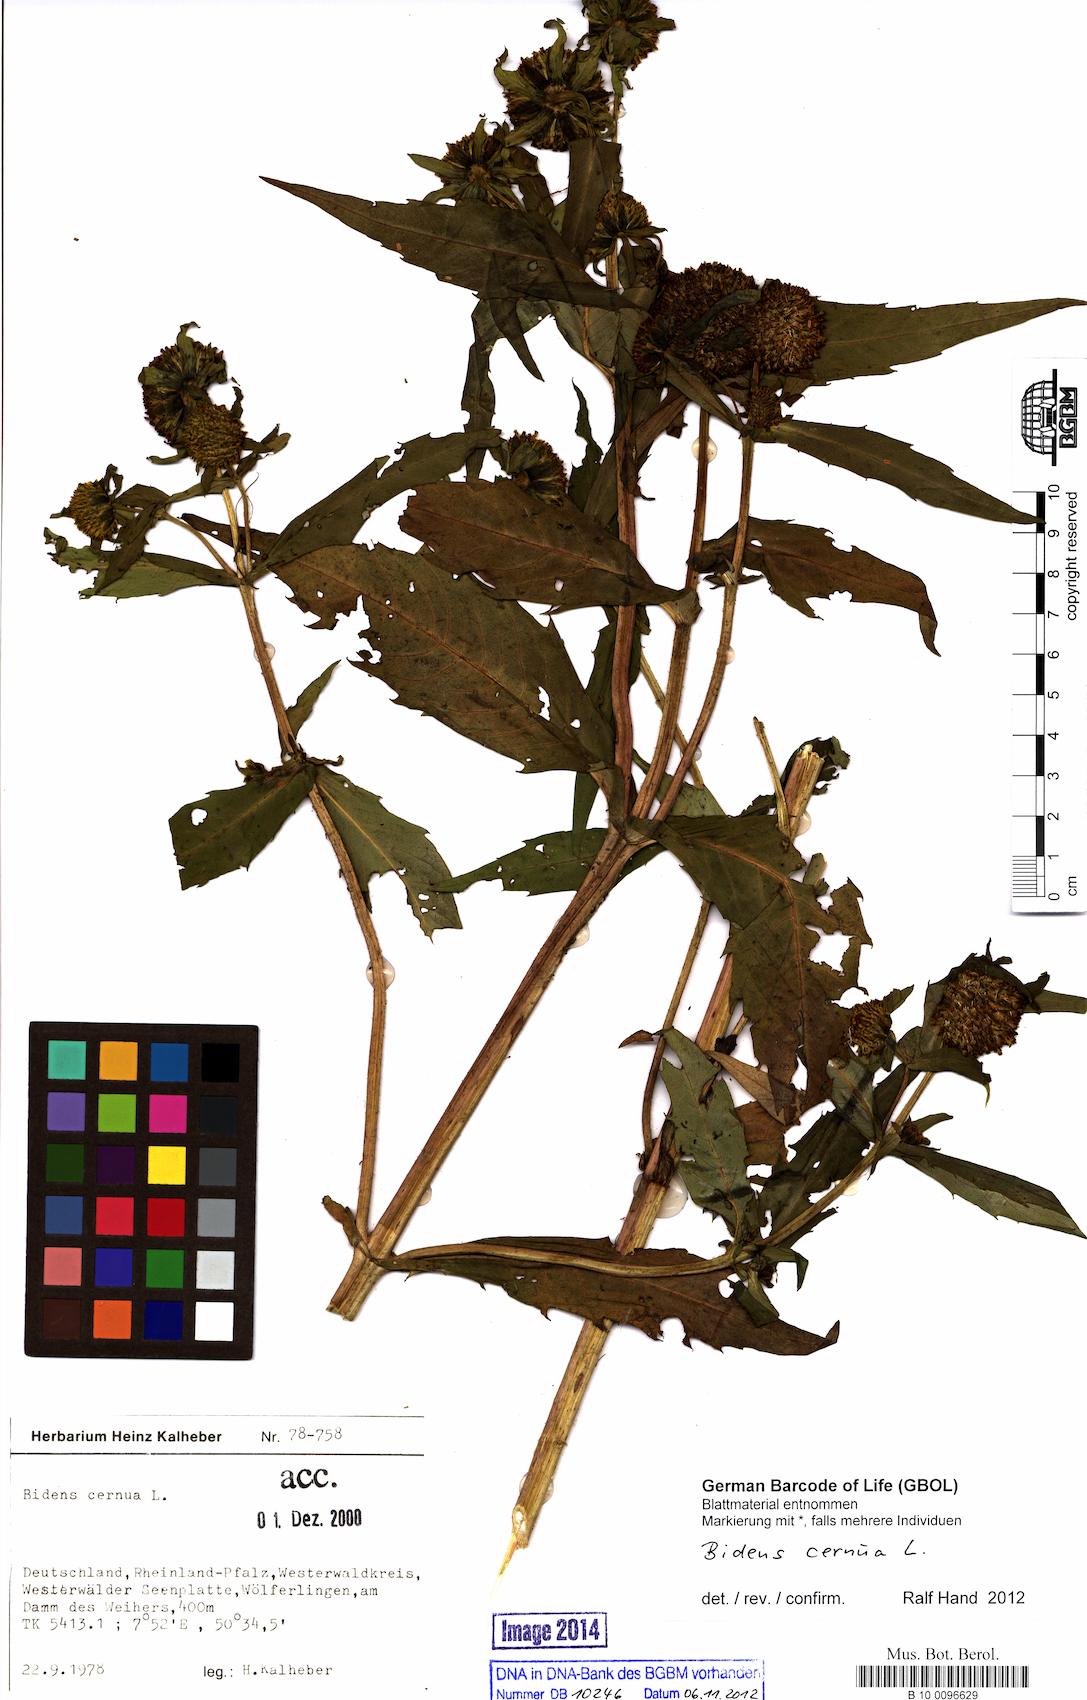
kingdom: Plantae
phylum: Tracheophyta
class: Magnoliopsida
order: Asterales
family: Asteraceae
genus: Bidens
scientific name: Bidens cernua
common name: Nodding bur-marigold
